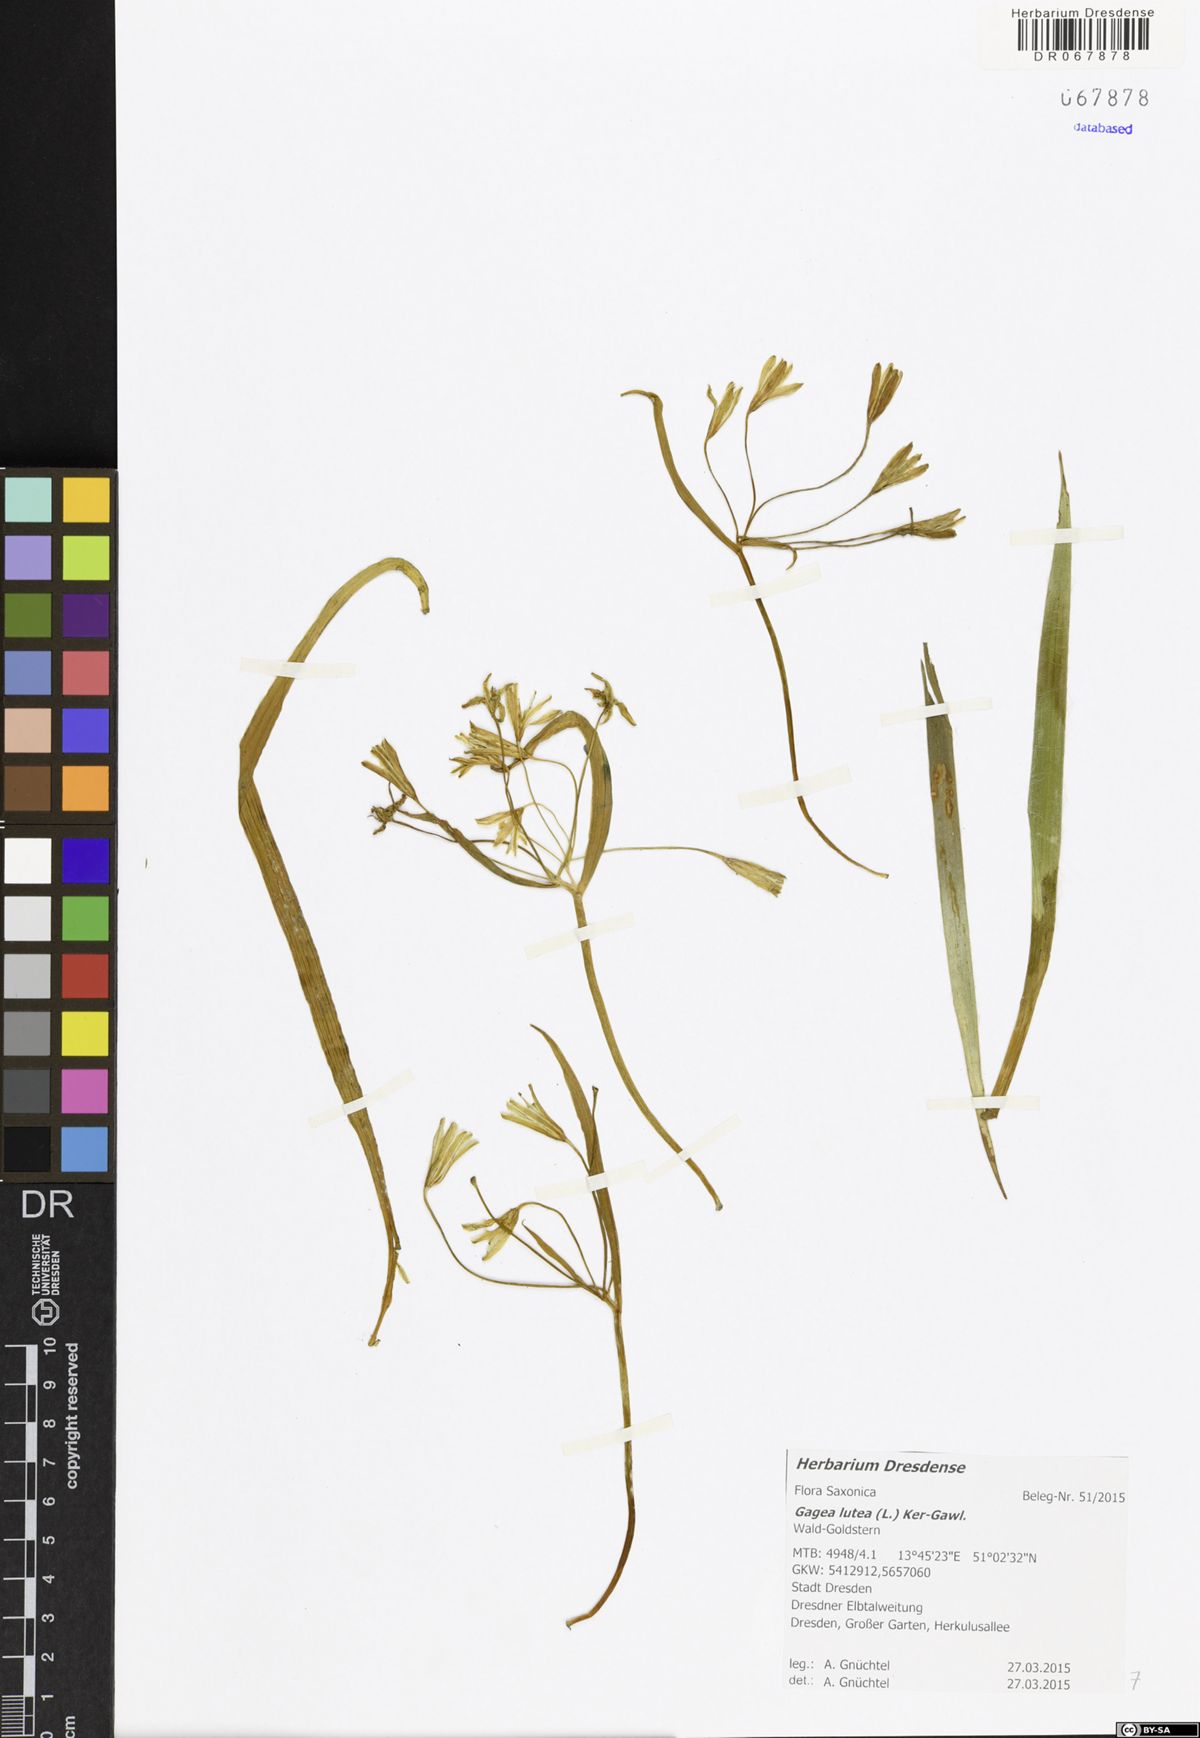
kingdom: Plantae
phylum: Tracheophyta
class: Liliopsida
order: Liliales
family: Liliaceae
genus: Gagea
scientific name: Gagea lutea
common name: Yellow star-of-bethlehem
